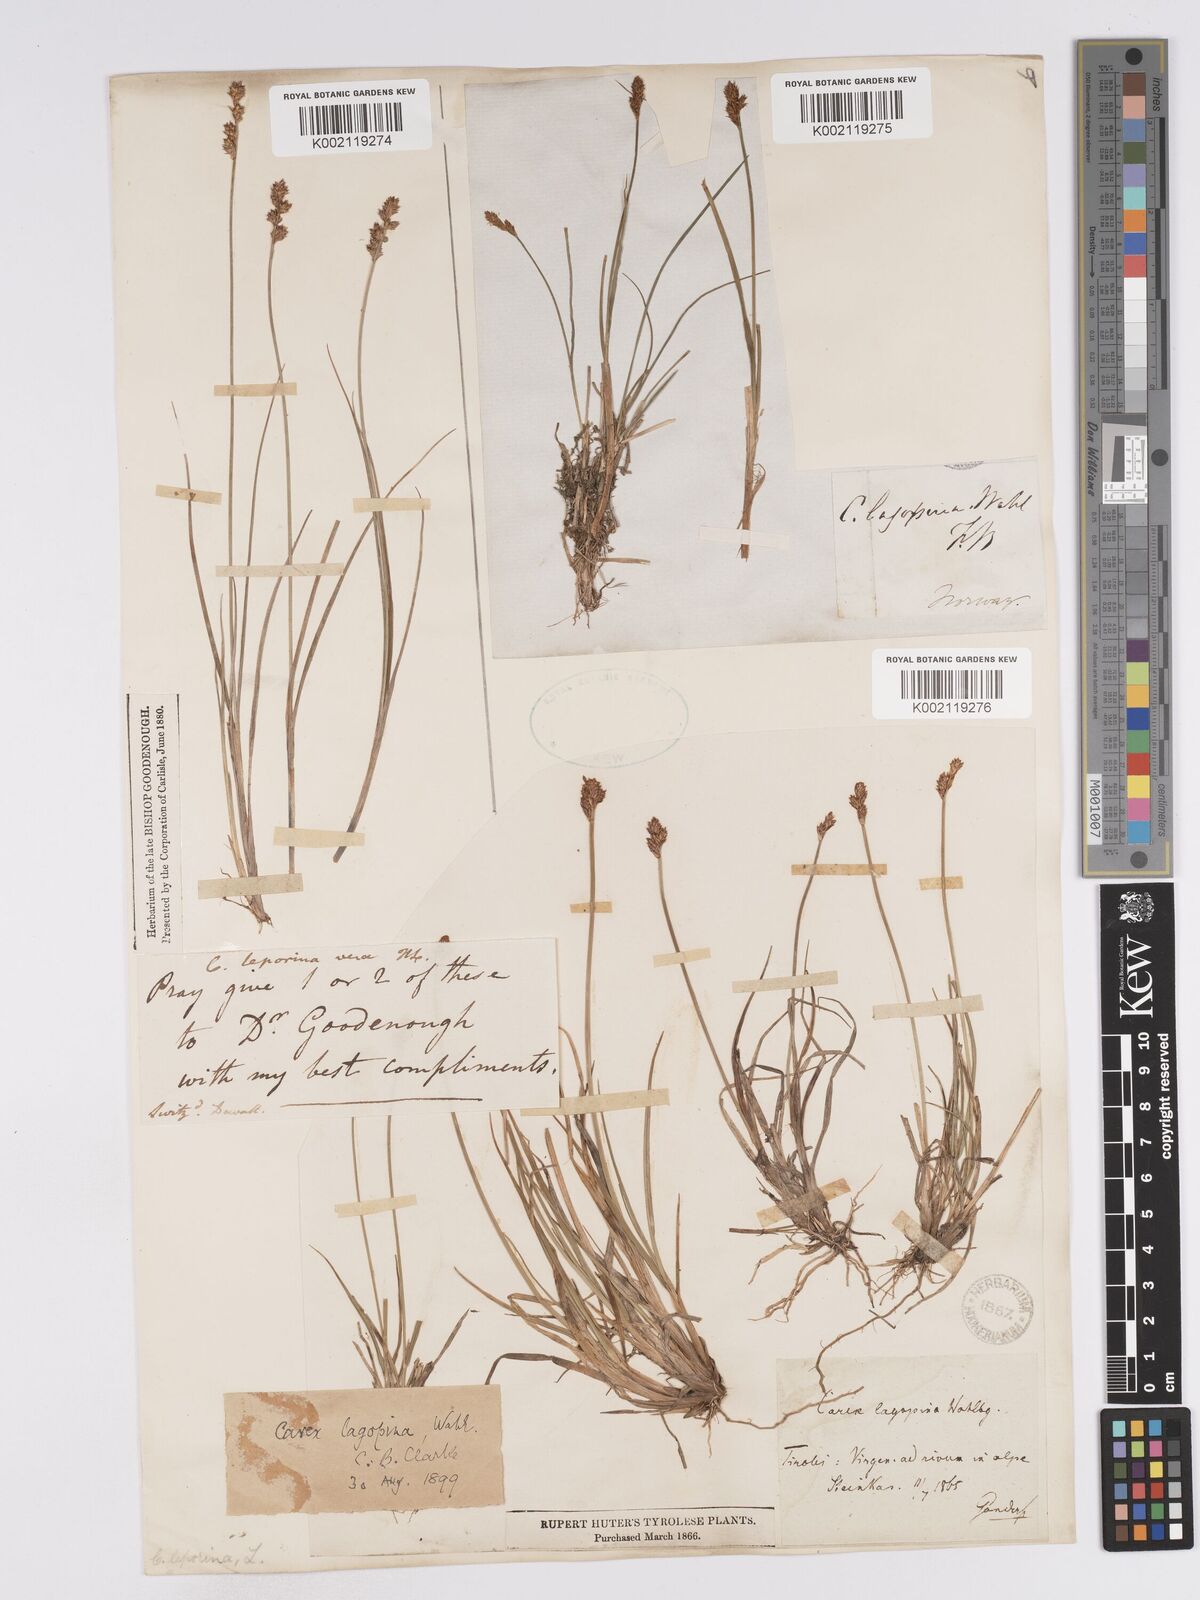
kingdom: Plantae
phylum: Tracheophyta
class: Liliopsida
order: Poales
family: Cyperaceae
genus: Carex
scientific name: Carex lachenalii
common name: Hare's-foot sedge
